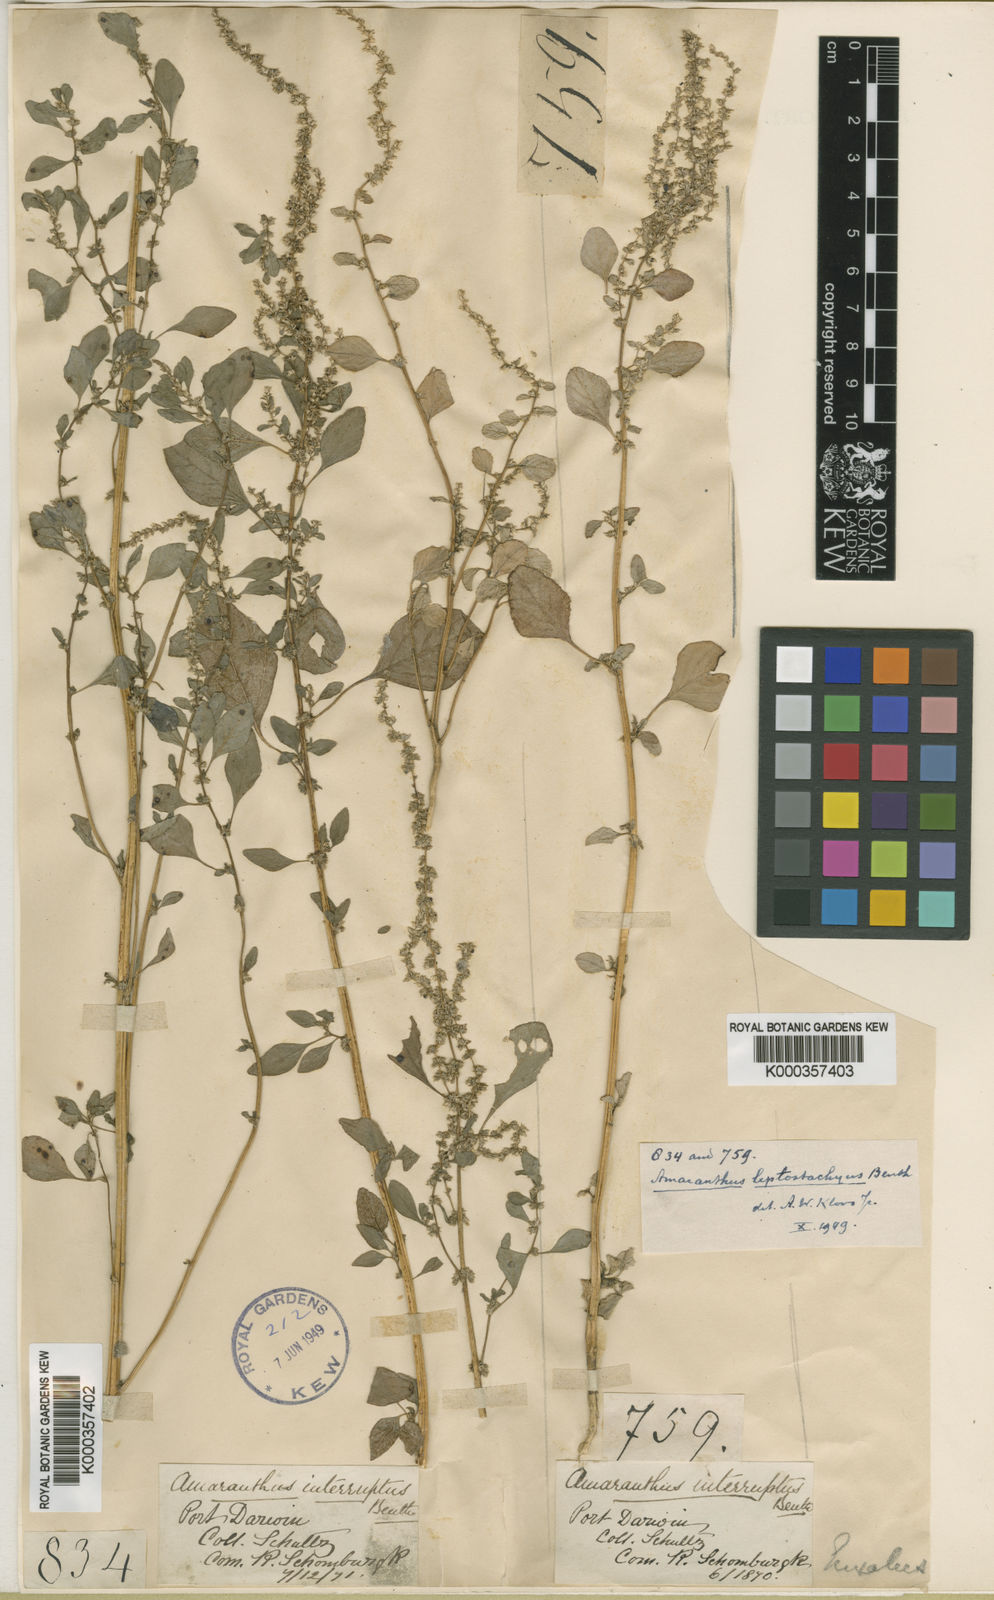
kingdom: Plantae
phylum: Tracheophyta
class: Magnoliopsida
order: Caryophyllales
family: Amaranthaceae
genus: Amaranthus
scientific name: Amaranthus undulatus
